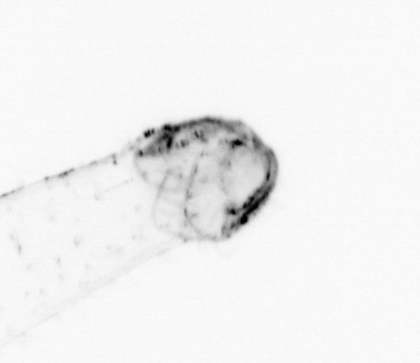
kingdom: Animalia
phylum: Chaetognatha
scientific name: Chaetognatha
